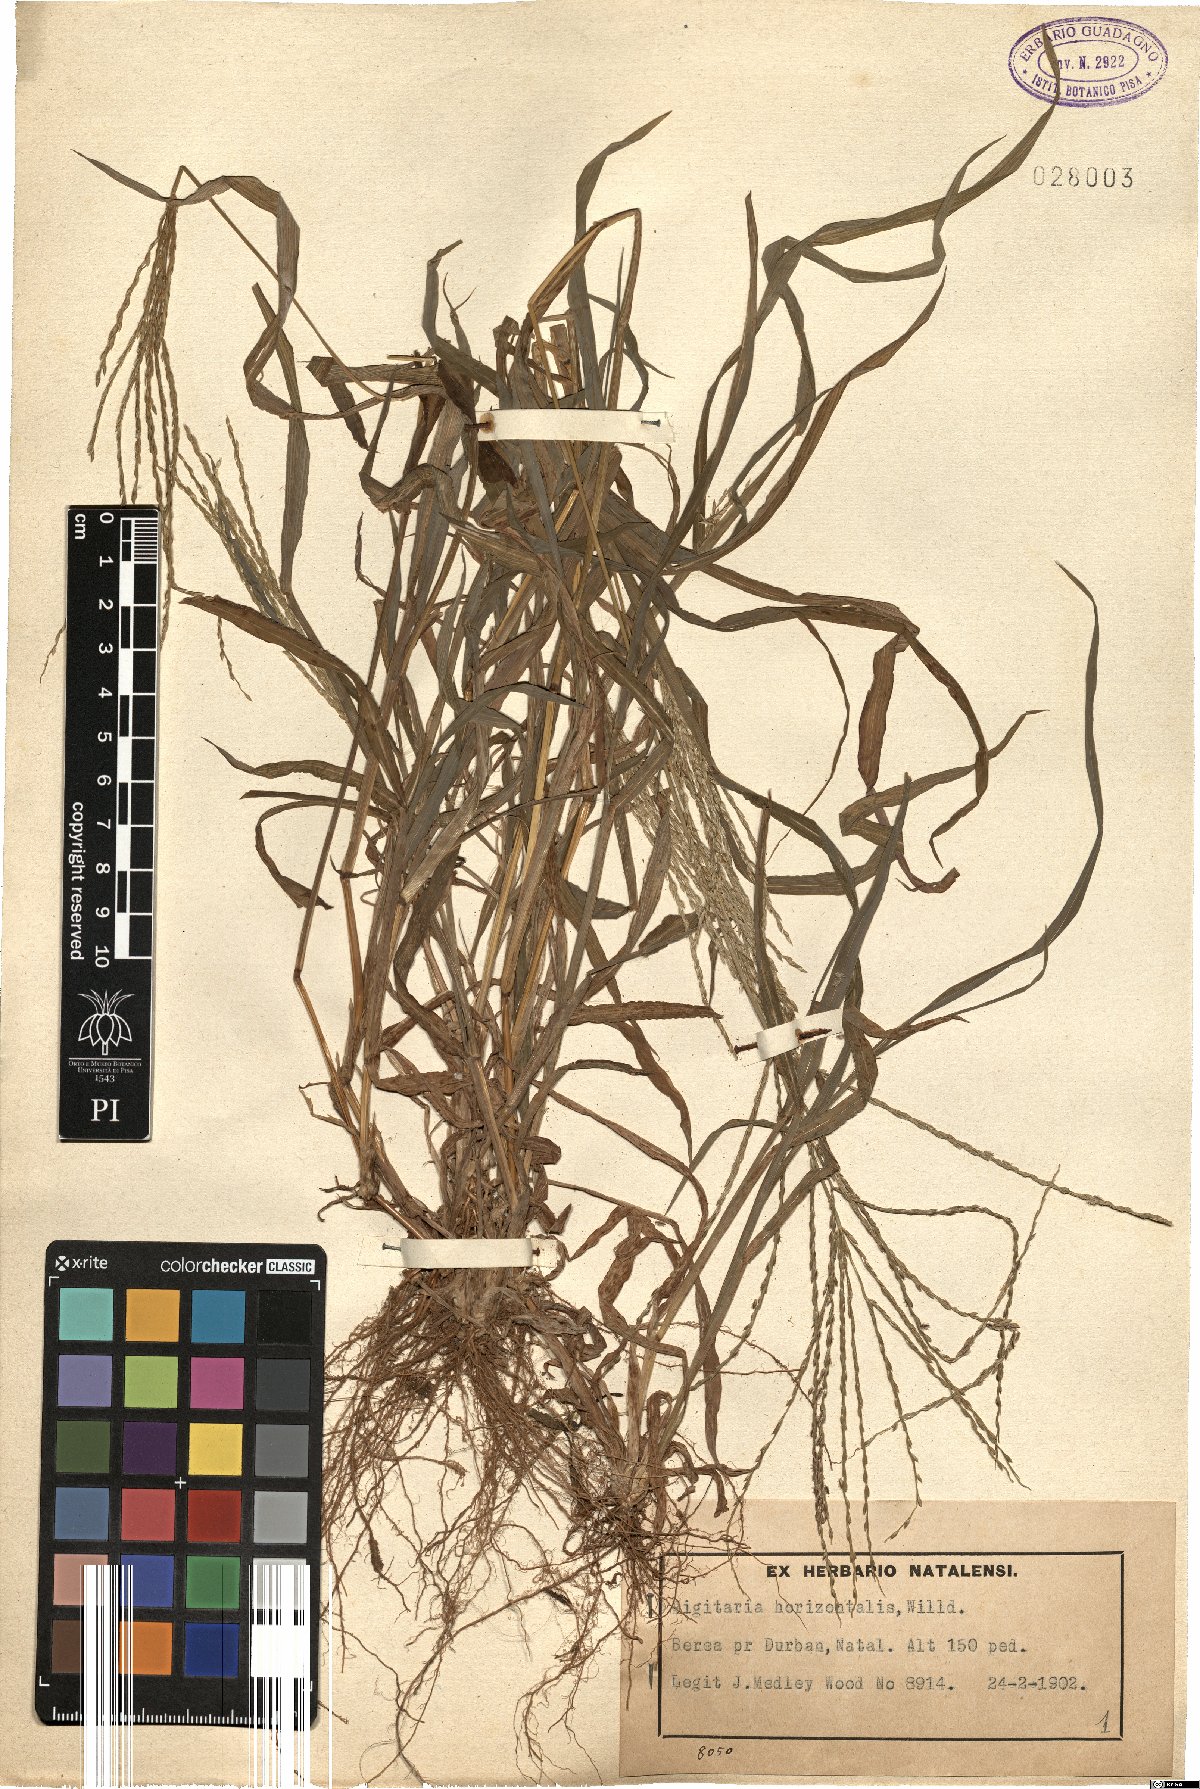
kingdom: Plantae
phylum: Tracheophyta
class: Liliopsida
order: Poales
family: Poaceae
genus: Digitaria
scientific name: Digitaria horizontalis
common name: Jamaican crabgrass
